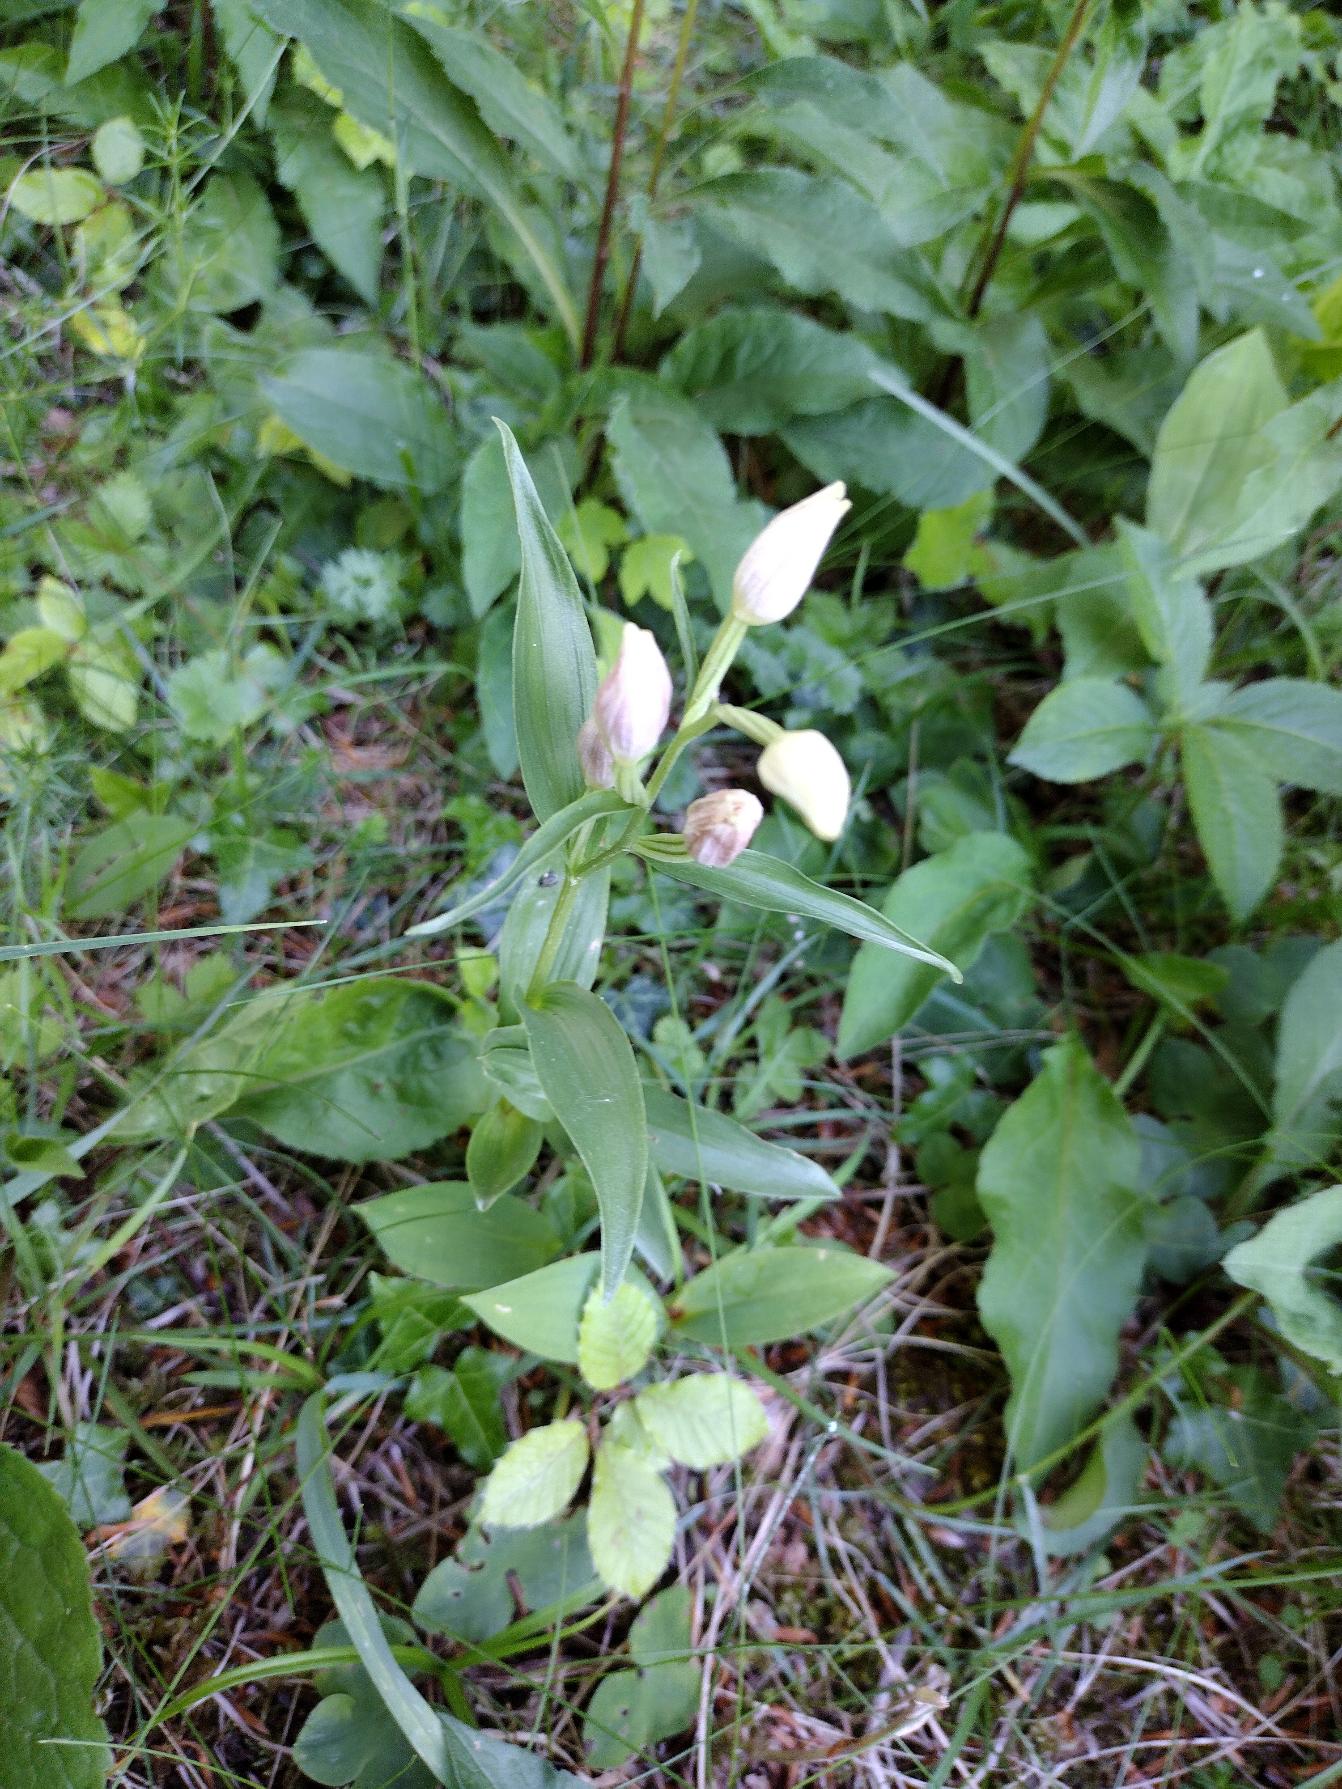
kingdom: Plantae
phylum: Tracheophyta
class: Liliopsida
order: Asparagales
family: Orchidaceae
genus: Cephalanthera
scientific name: Cephalanthera damasonium
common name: Hvidgul skovlilje
